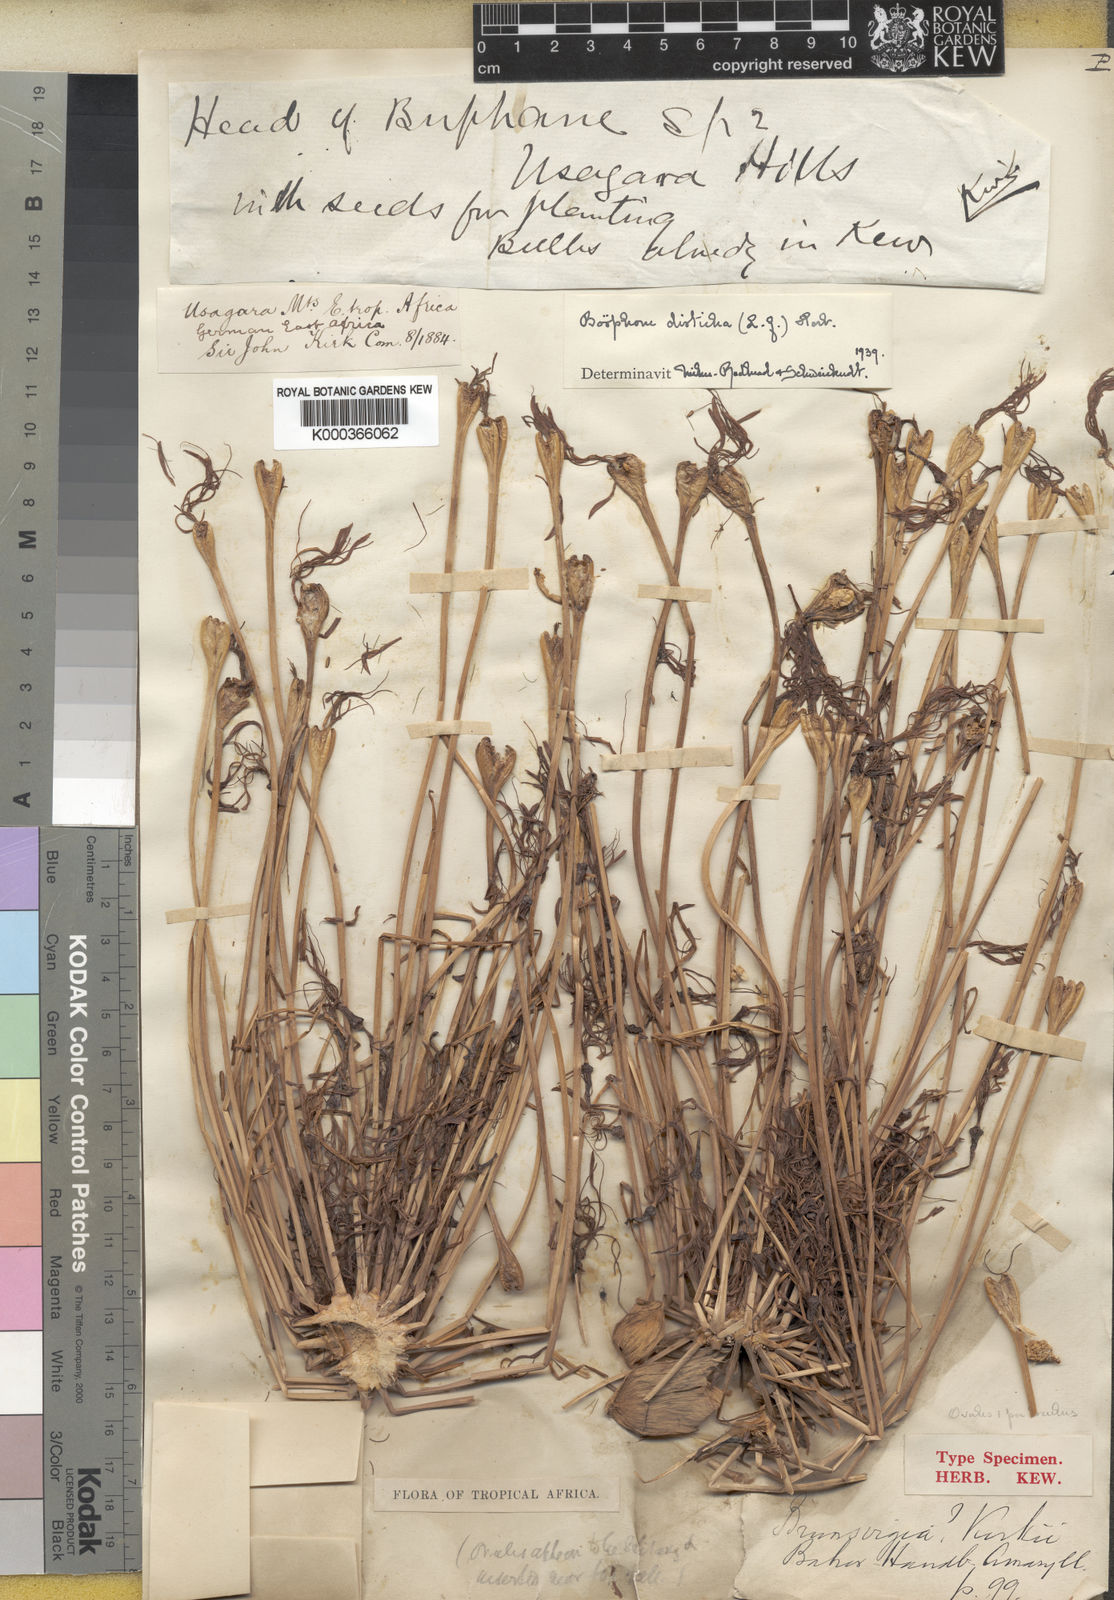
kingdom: Plantae
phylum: Tracheophyta
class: Liliopsida
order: Asparagales
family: Amaryllidaceae
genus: Boophone
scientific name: Boophone disticha
